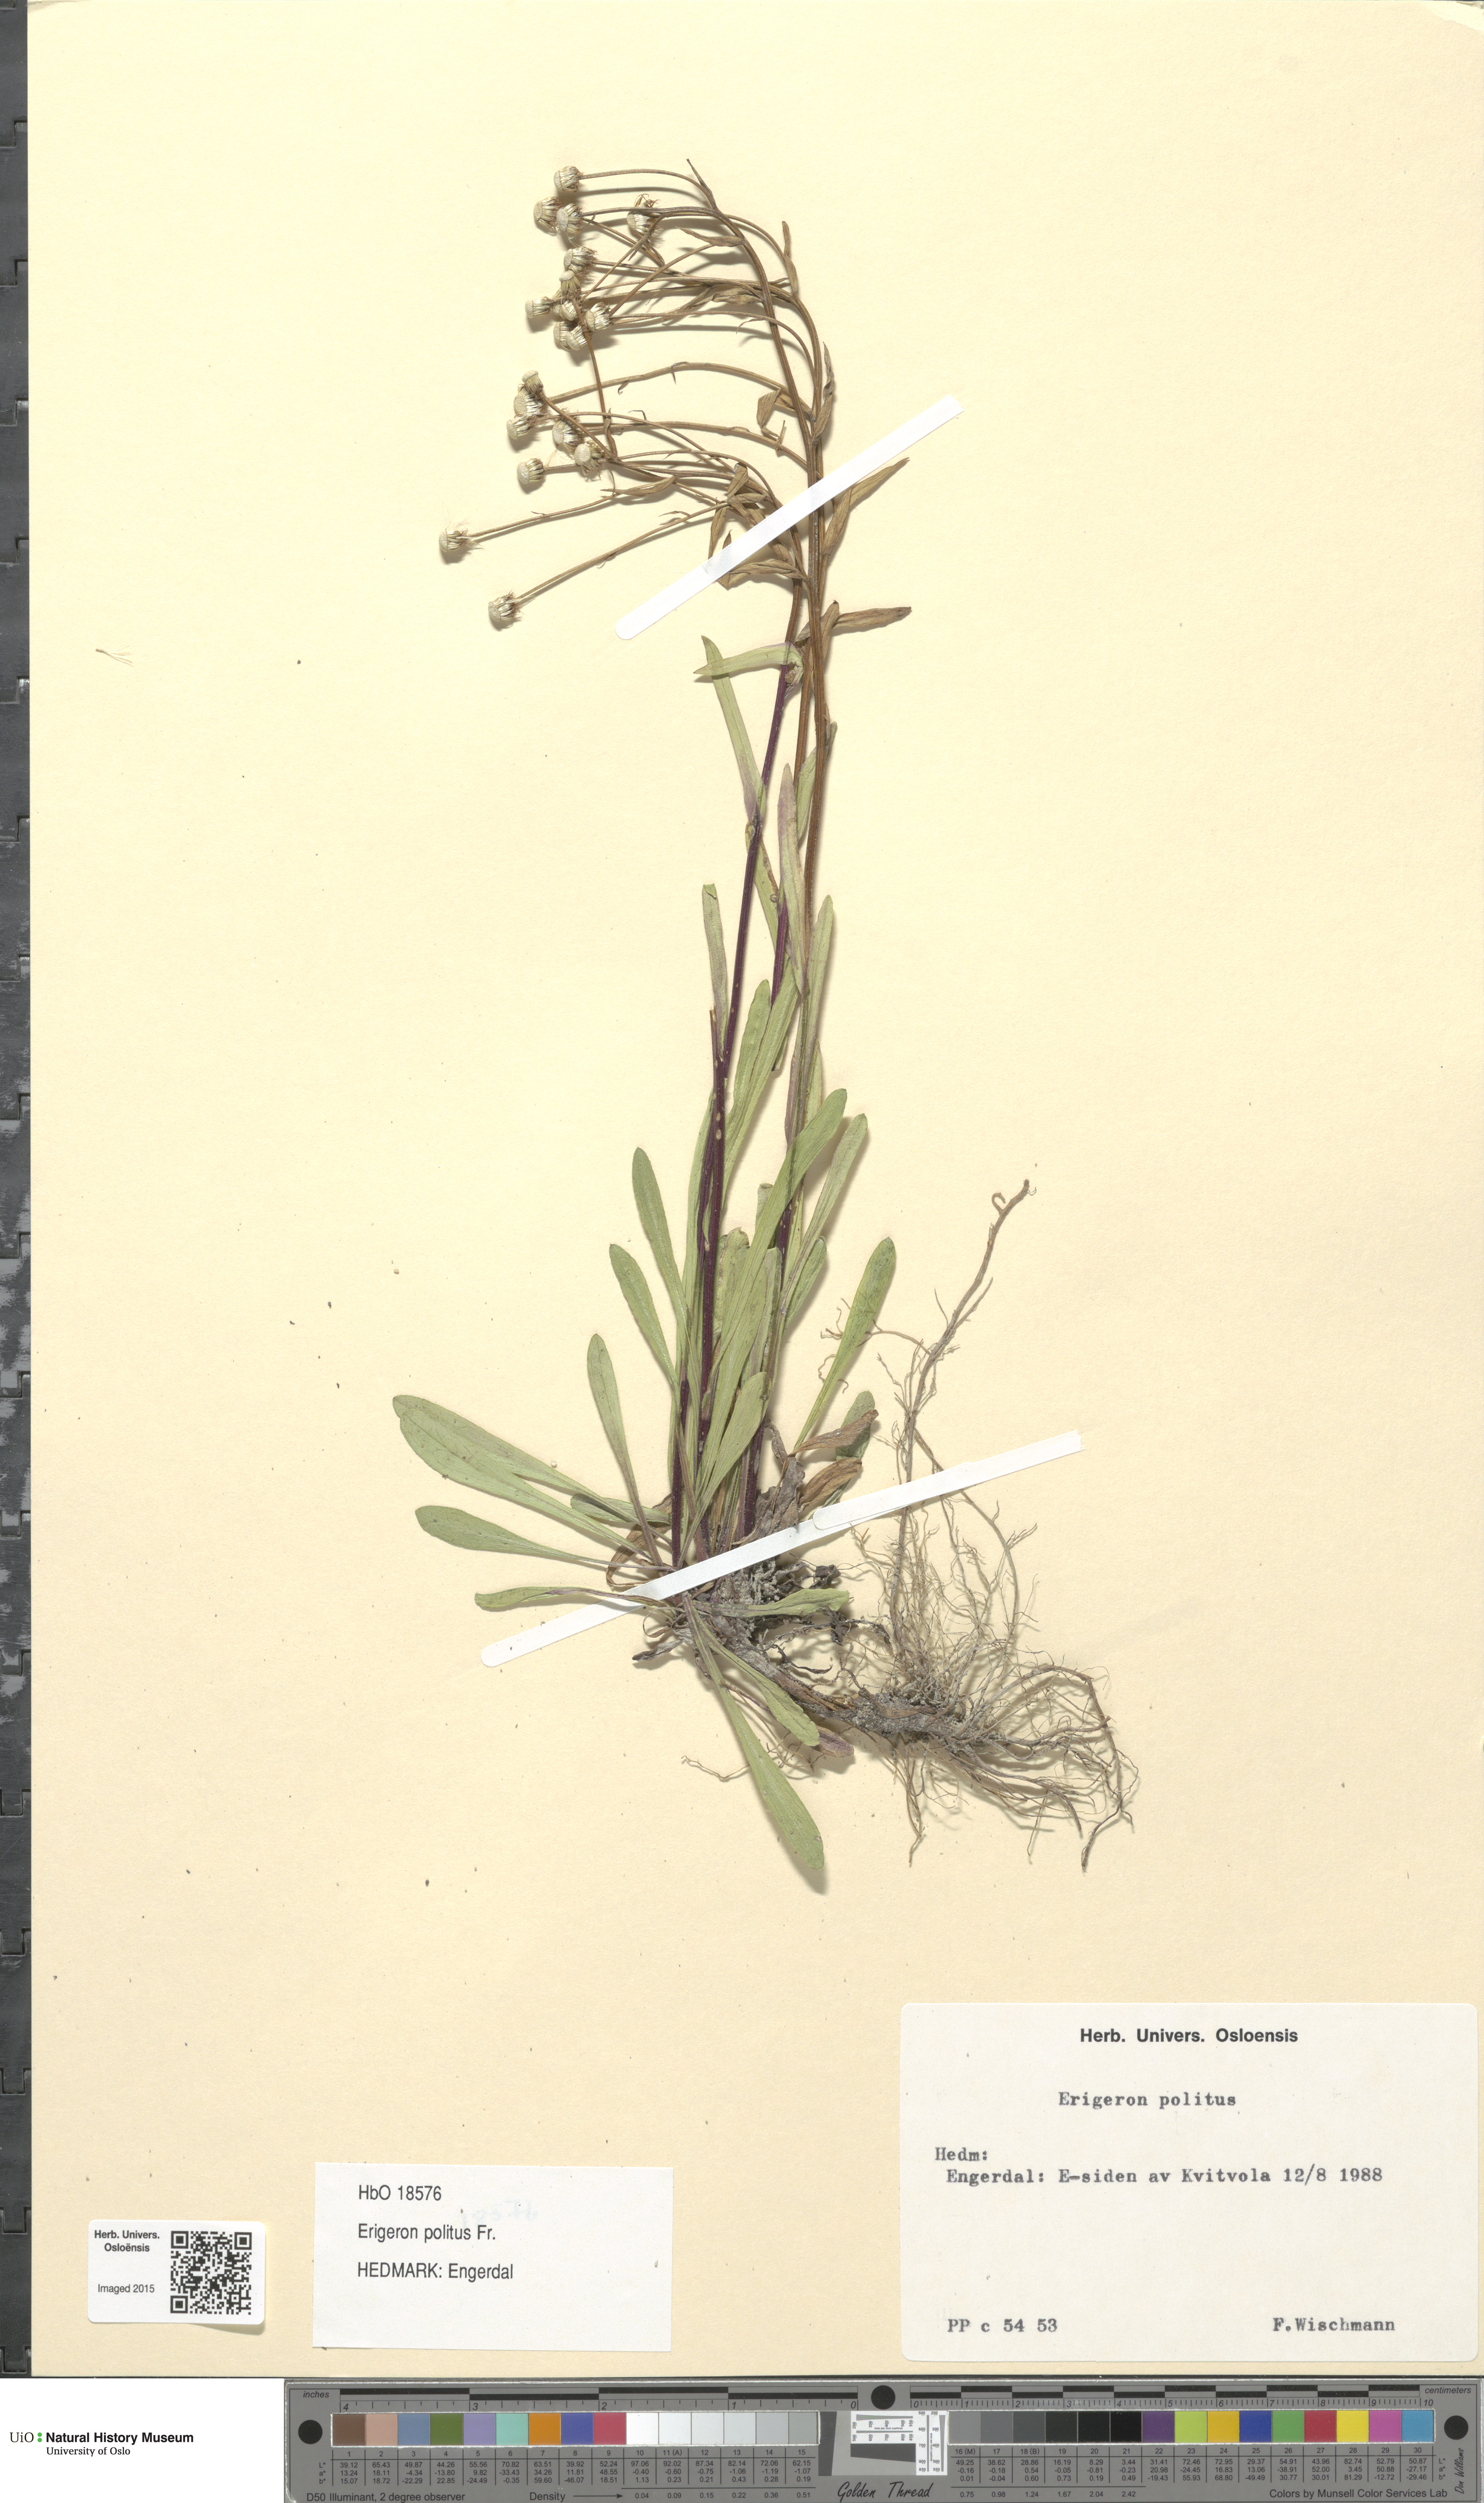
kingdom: Plantae
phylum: Tracheophyta
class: Magnoliopsida
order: Asterales
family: Asteraceae
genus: Erigeron
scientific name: Erigeron politus
